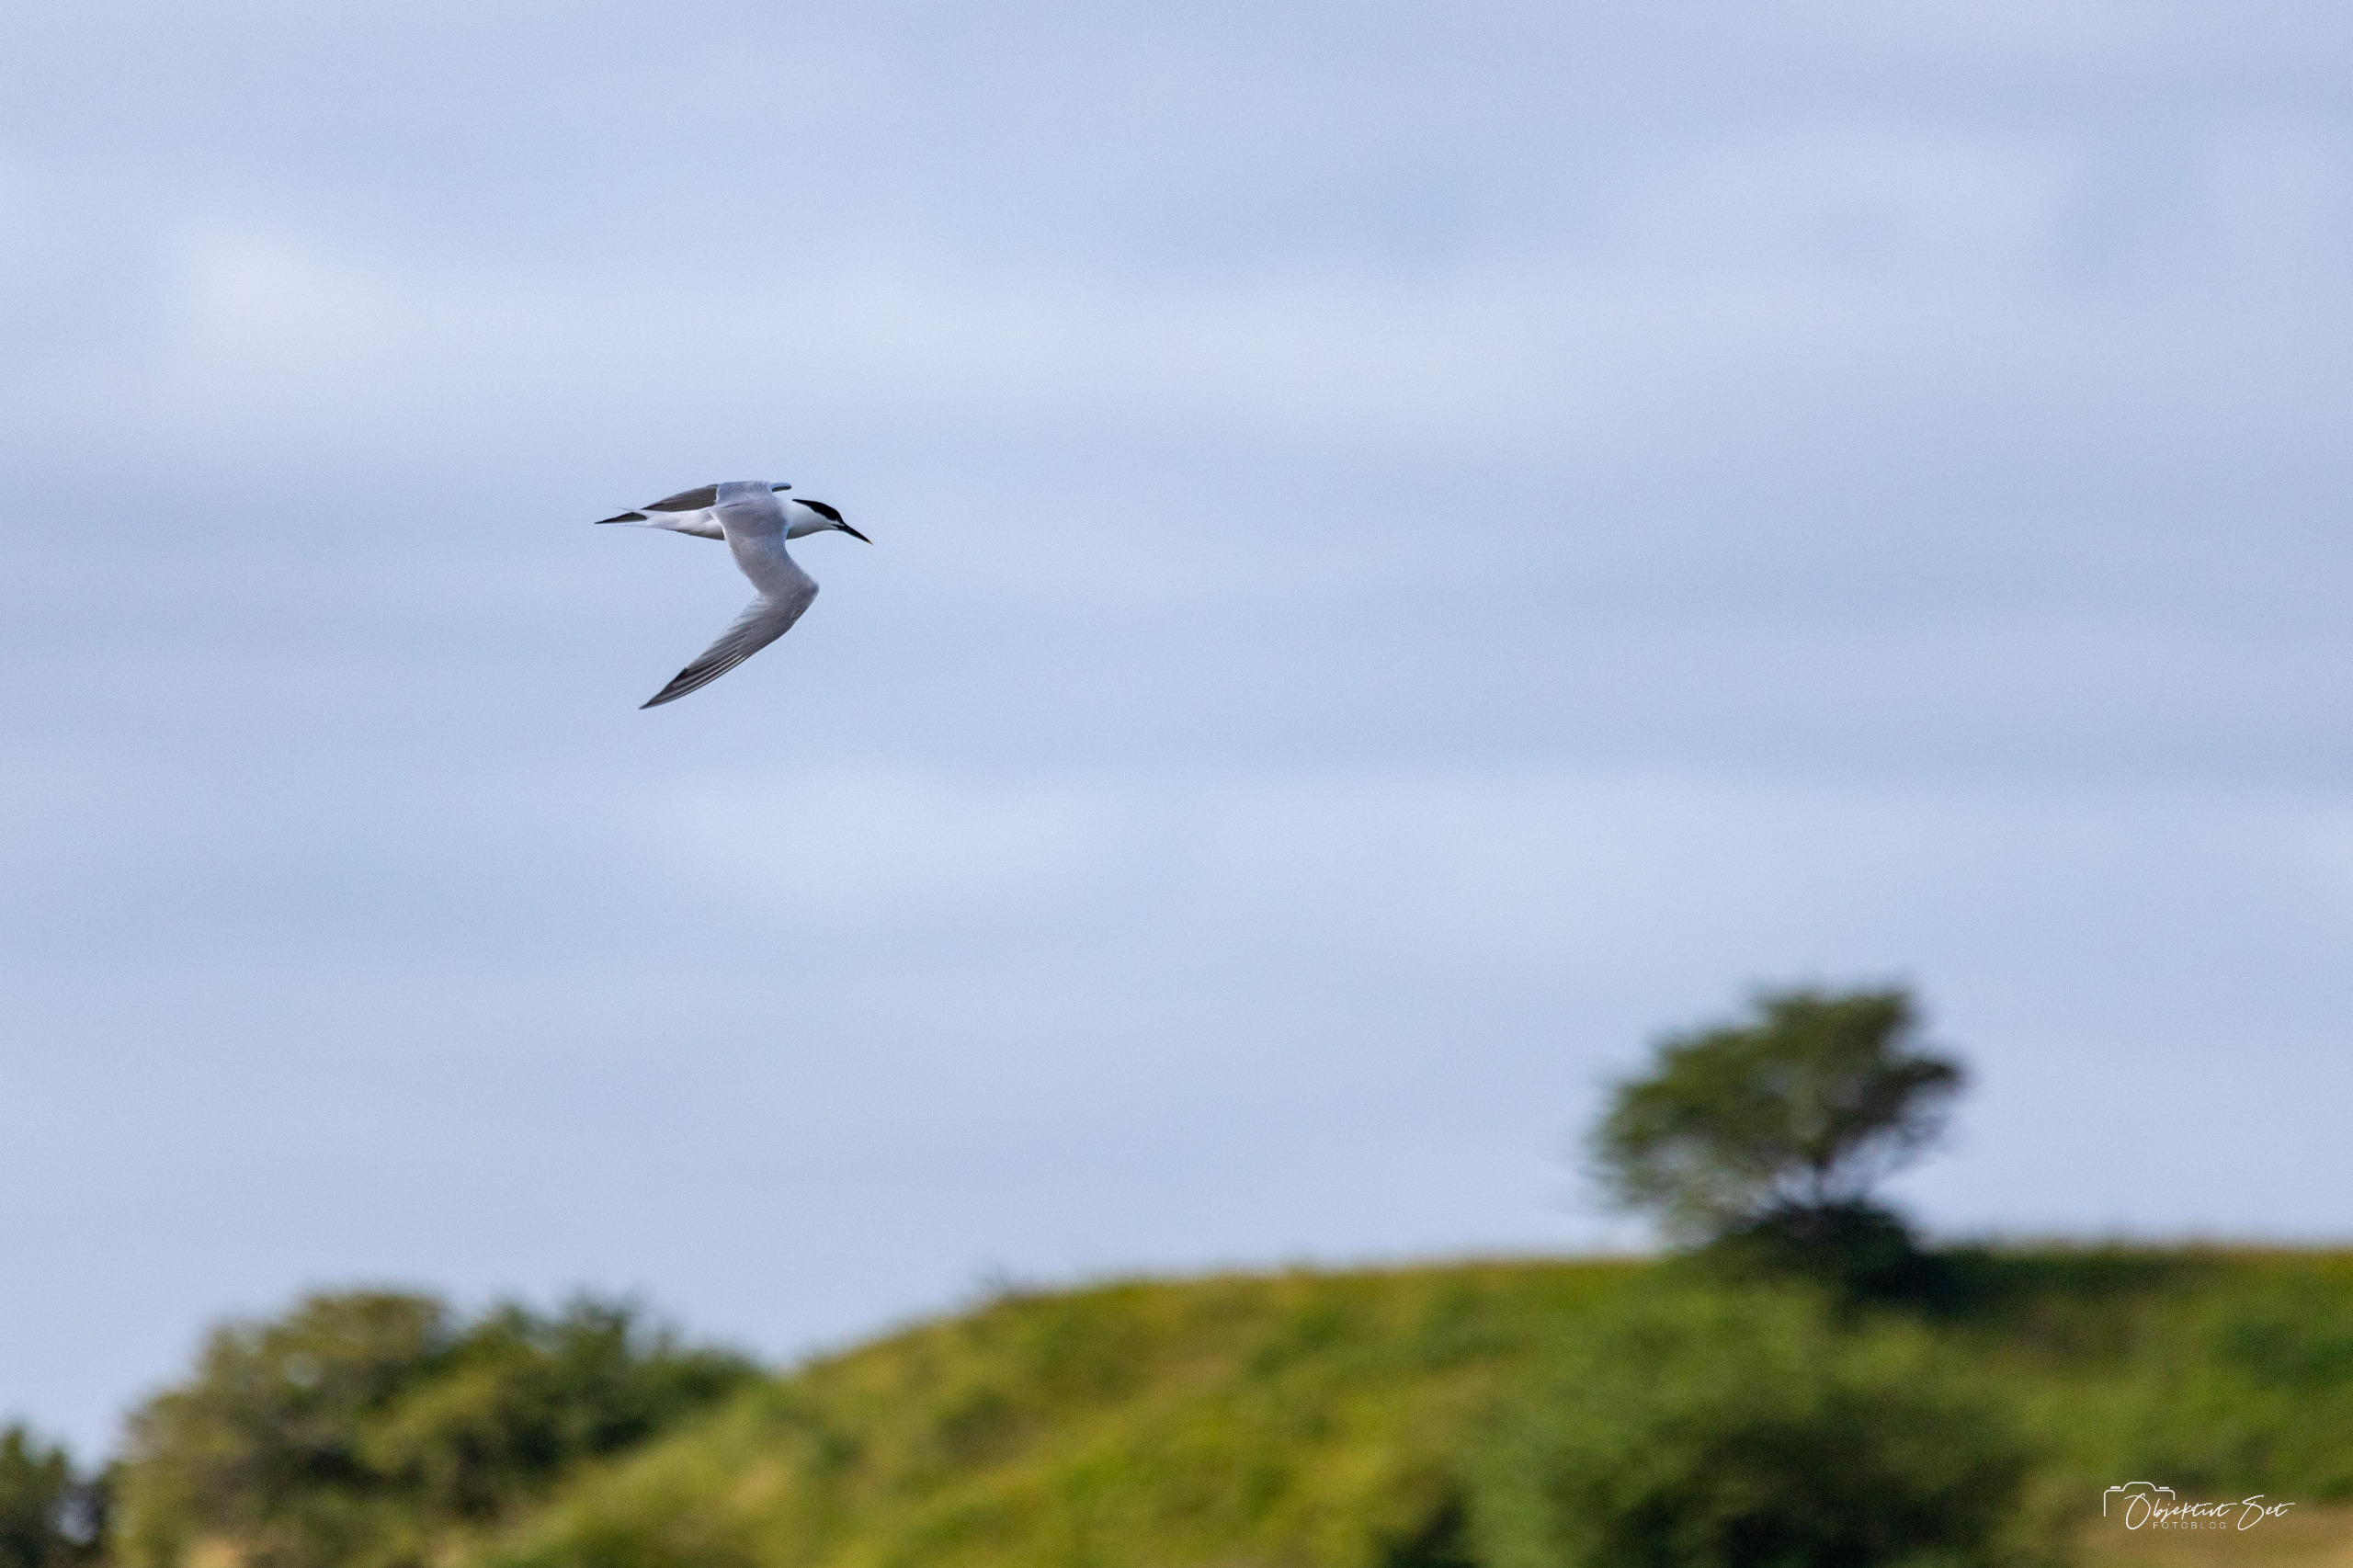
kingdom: Animalia
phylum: Chordata
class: Aves
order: Charadriiformes
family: Laridae
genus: Thalasseus
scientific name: Thalasseus sandvicensis
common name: Splitterne
